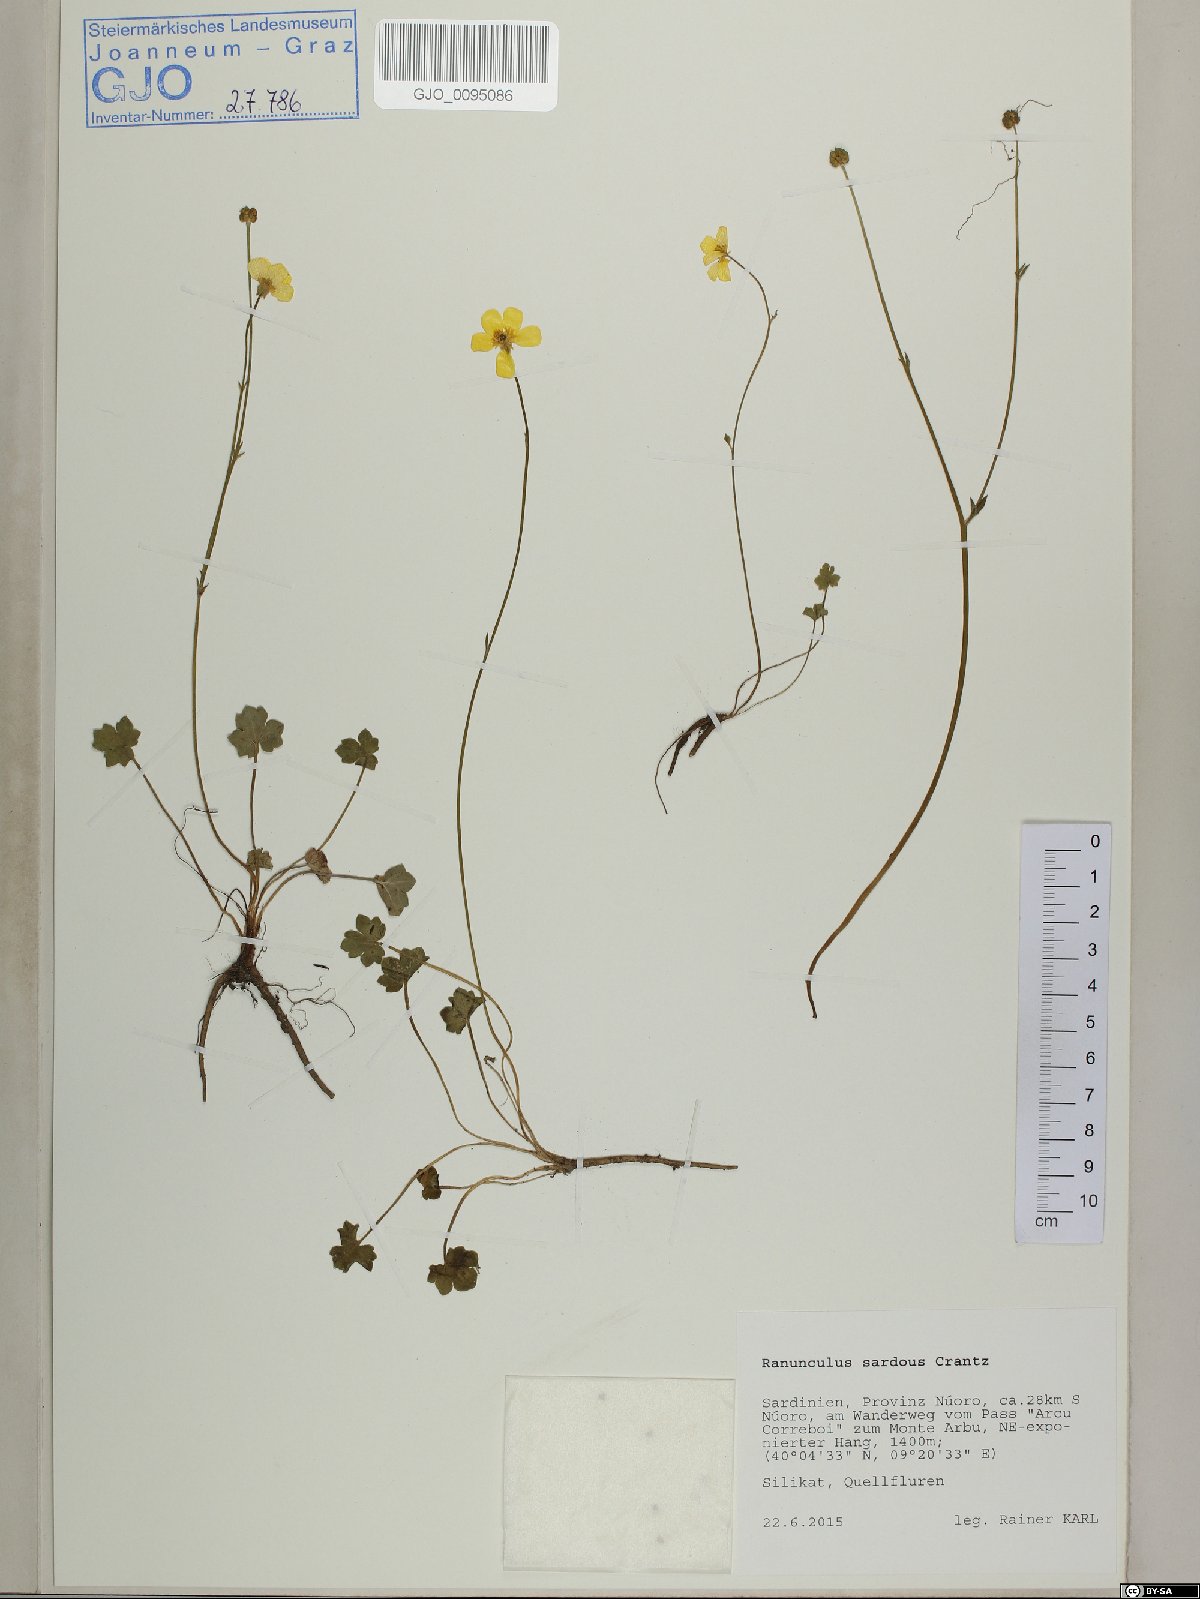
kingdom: Plantae
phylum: Tracheophyta
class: Magnoliopsida
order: Ranunculales
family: Ranunculaceae
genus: Ranunculus
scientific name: Ranunculus sardous
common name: Hairy buttercup
